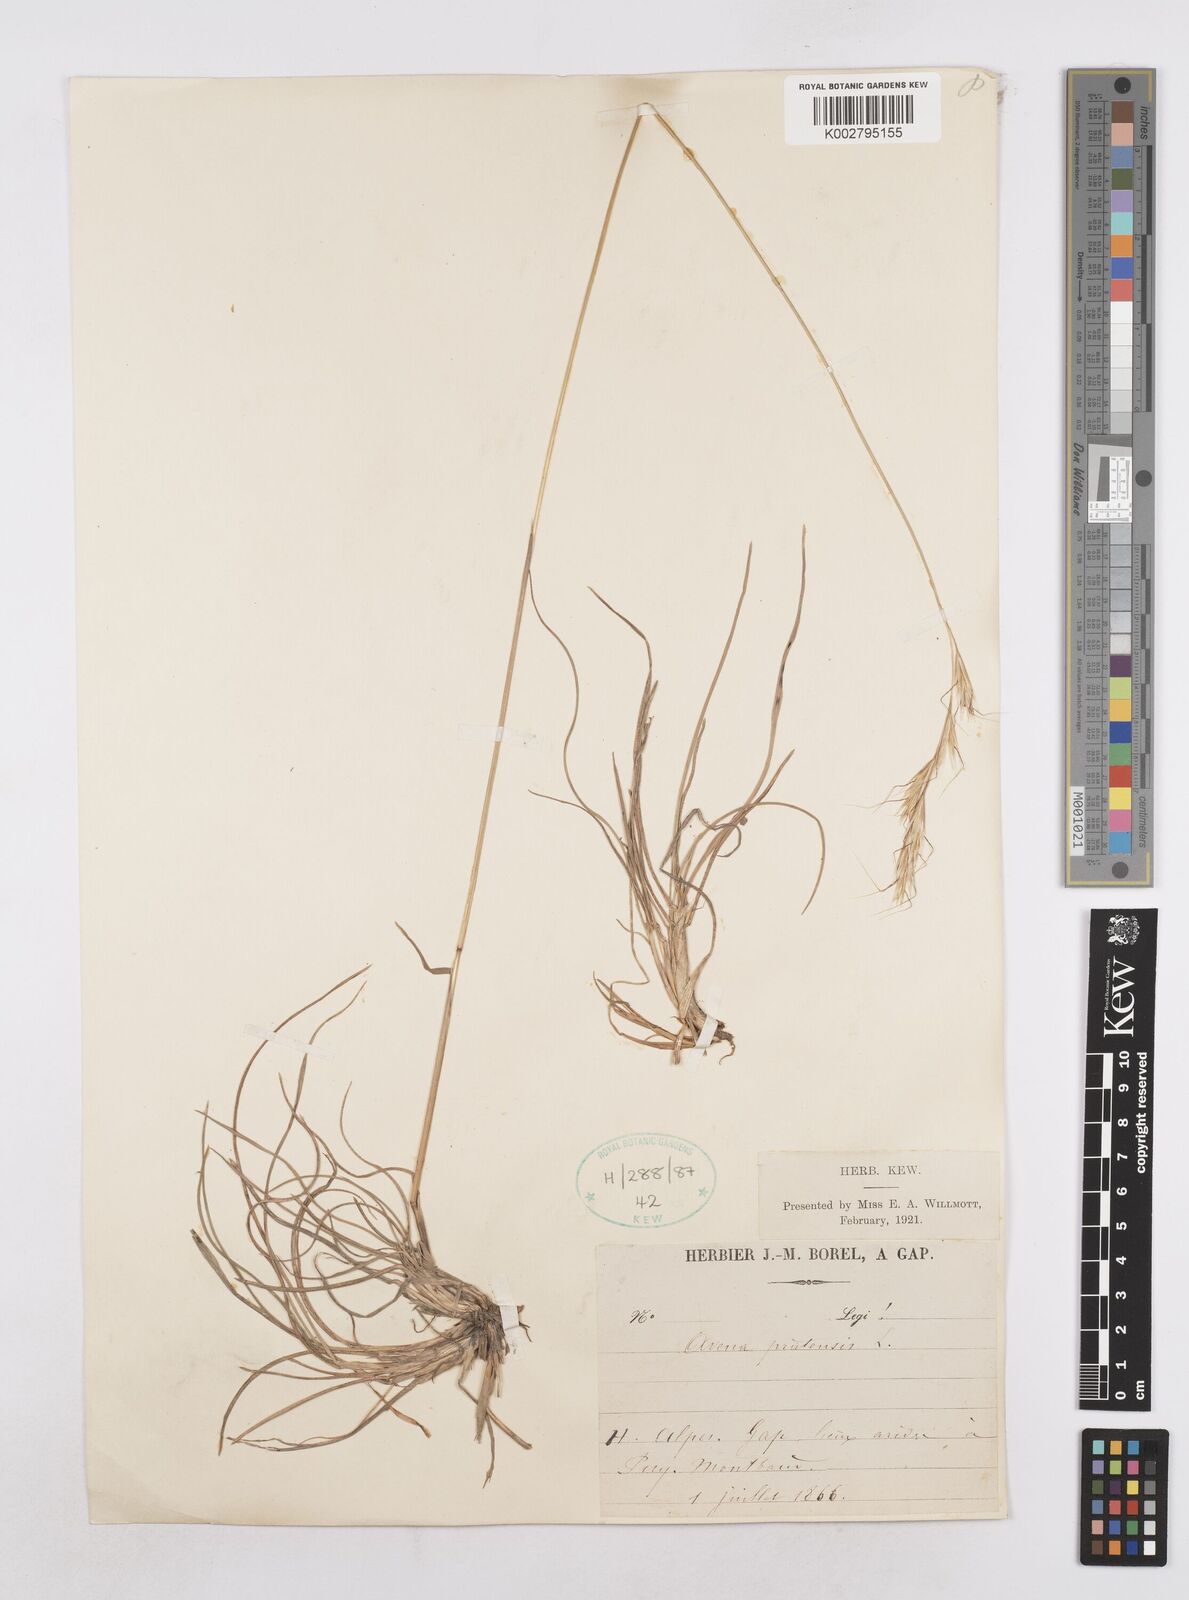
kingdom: Plantae
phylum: Tracheophyta
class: Liliopsida
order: Poales
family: Poaceae
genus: Helictochloa
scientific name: Helictochloa pratensis
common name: Meadow oat grass
